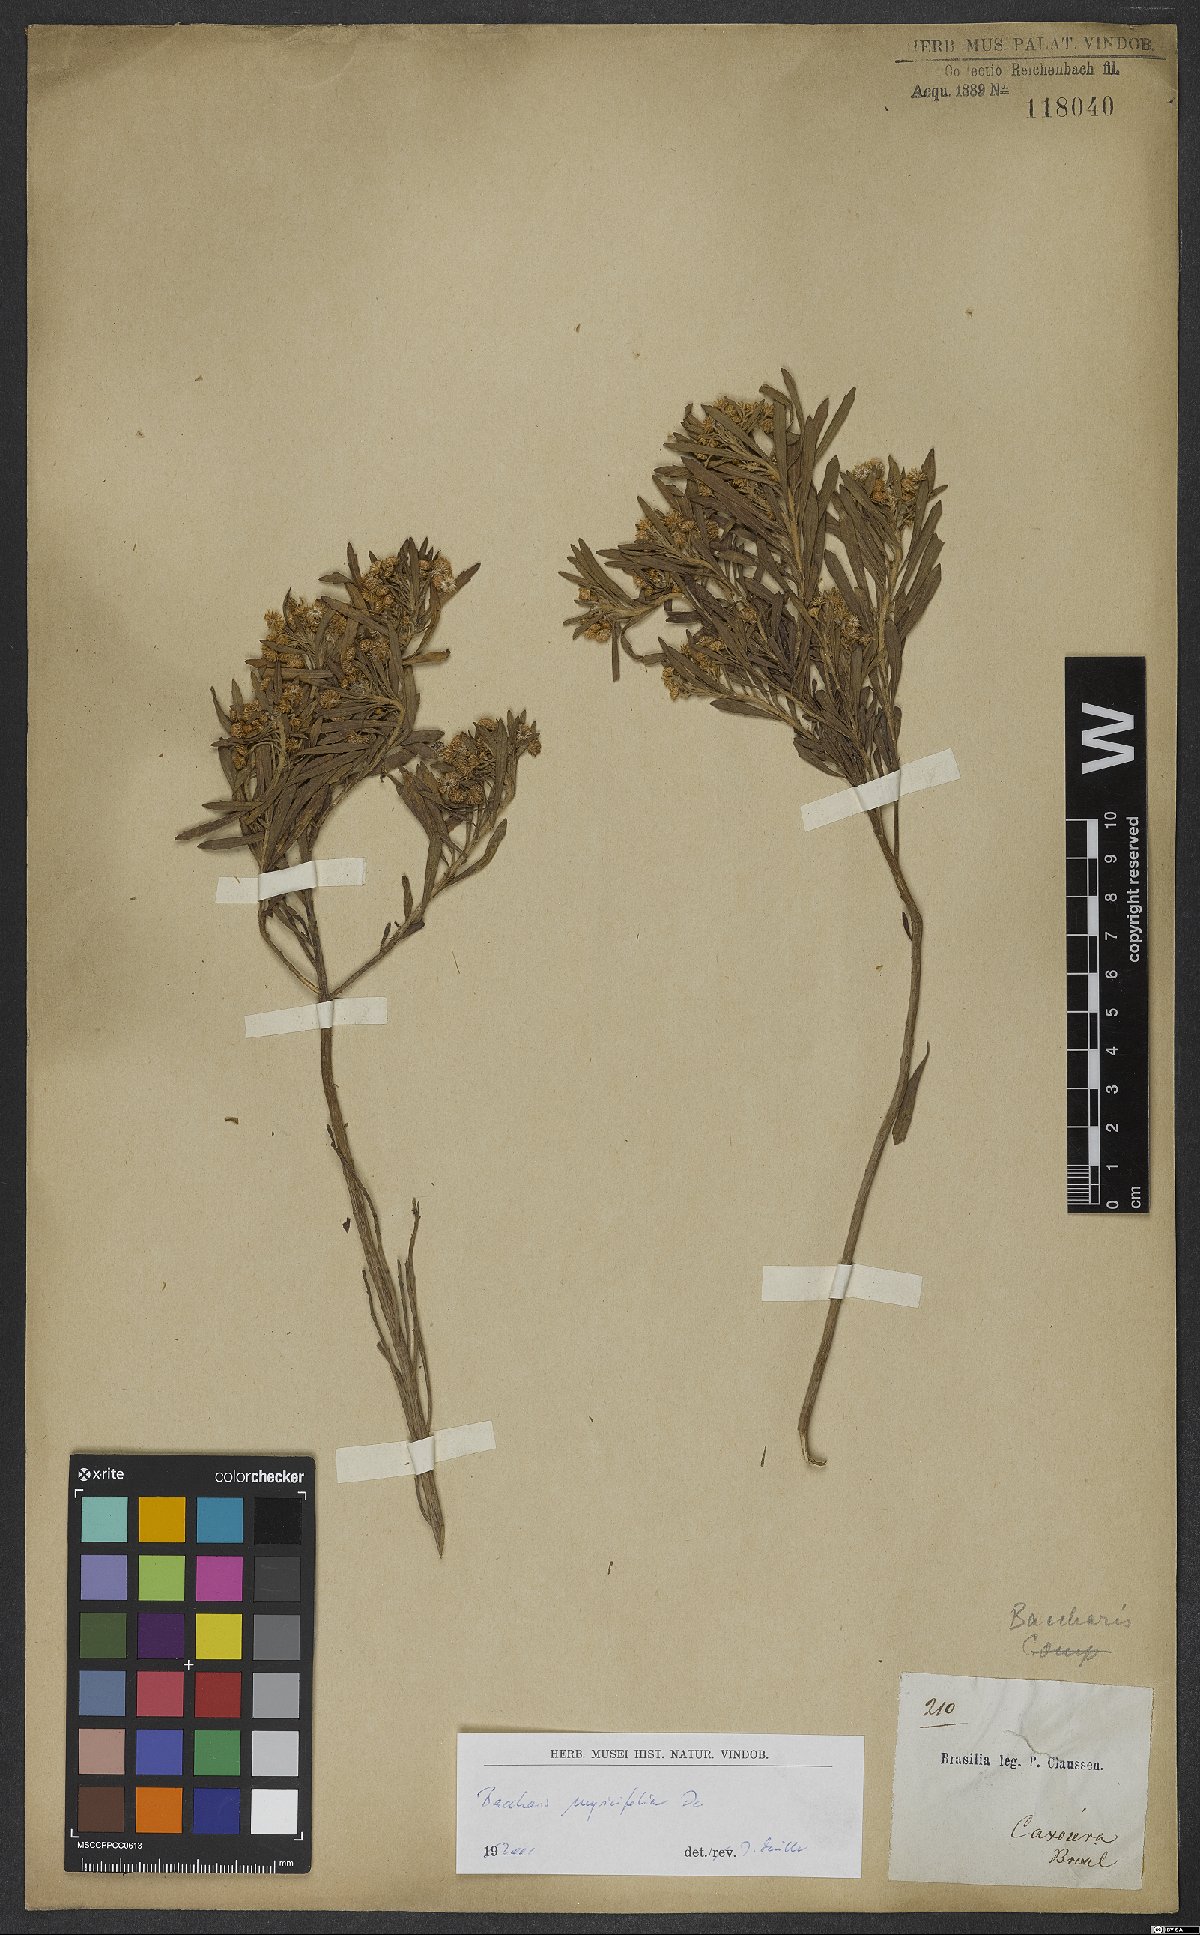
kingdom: Plantae
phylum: Tracheophyta
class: Magnoliopsida
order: Asterales
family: Asteraceae
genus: Baccharis
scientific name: Baccharis myricifolia
